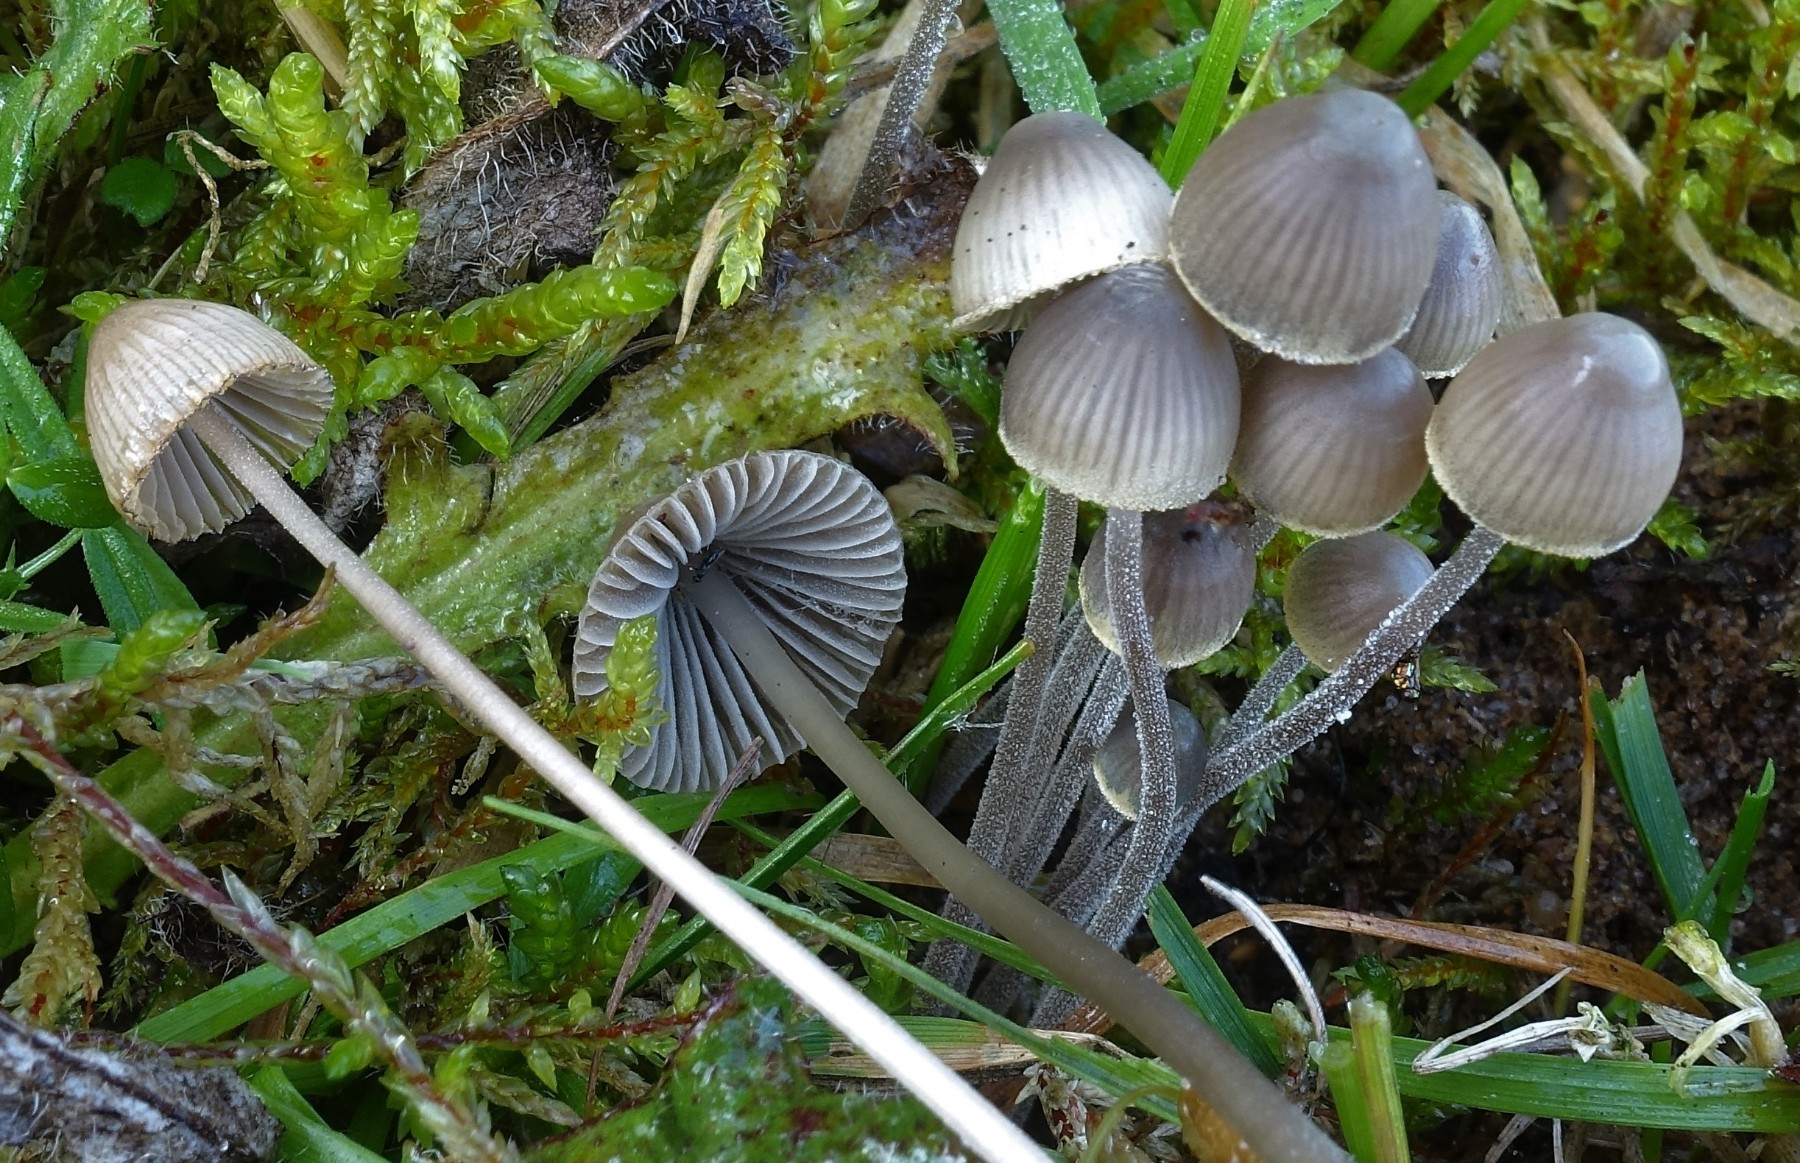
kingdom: Fungi
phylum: Basidiomycota
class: Agaricomycetes
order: Agaricales
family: Mycenaceae
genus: Mycena
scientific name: Mycena amicta
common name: iris-huesvamp
